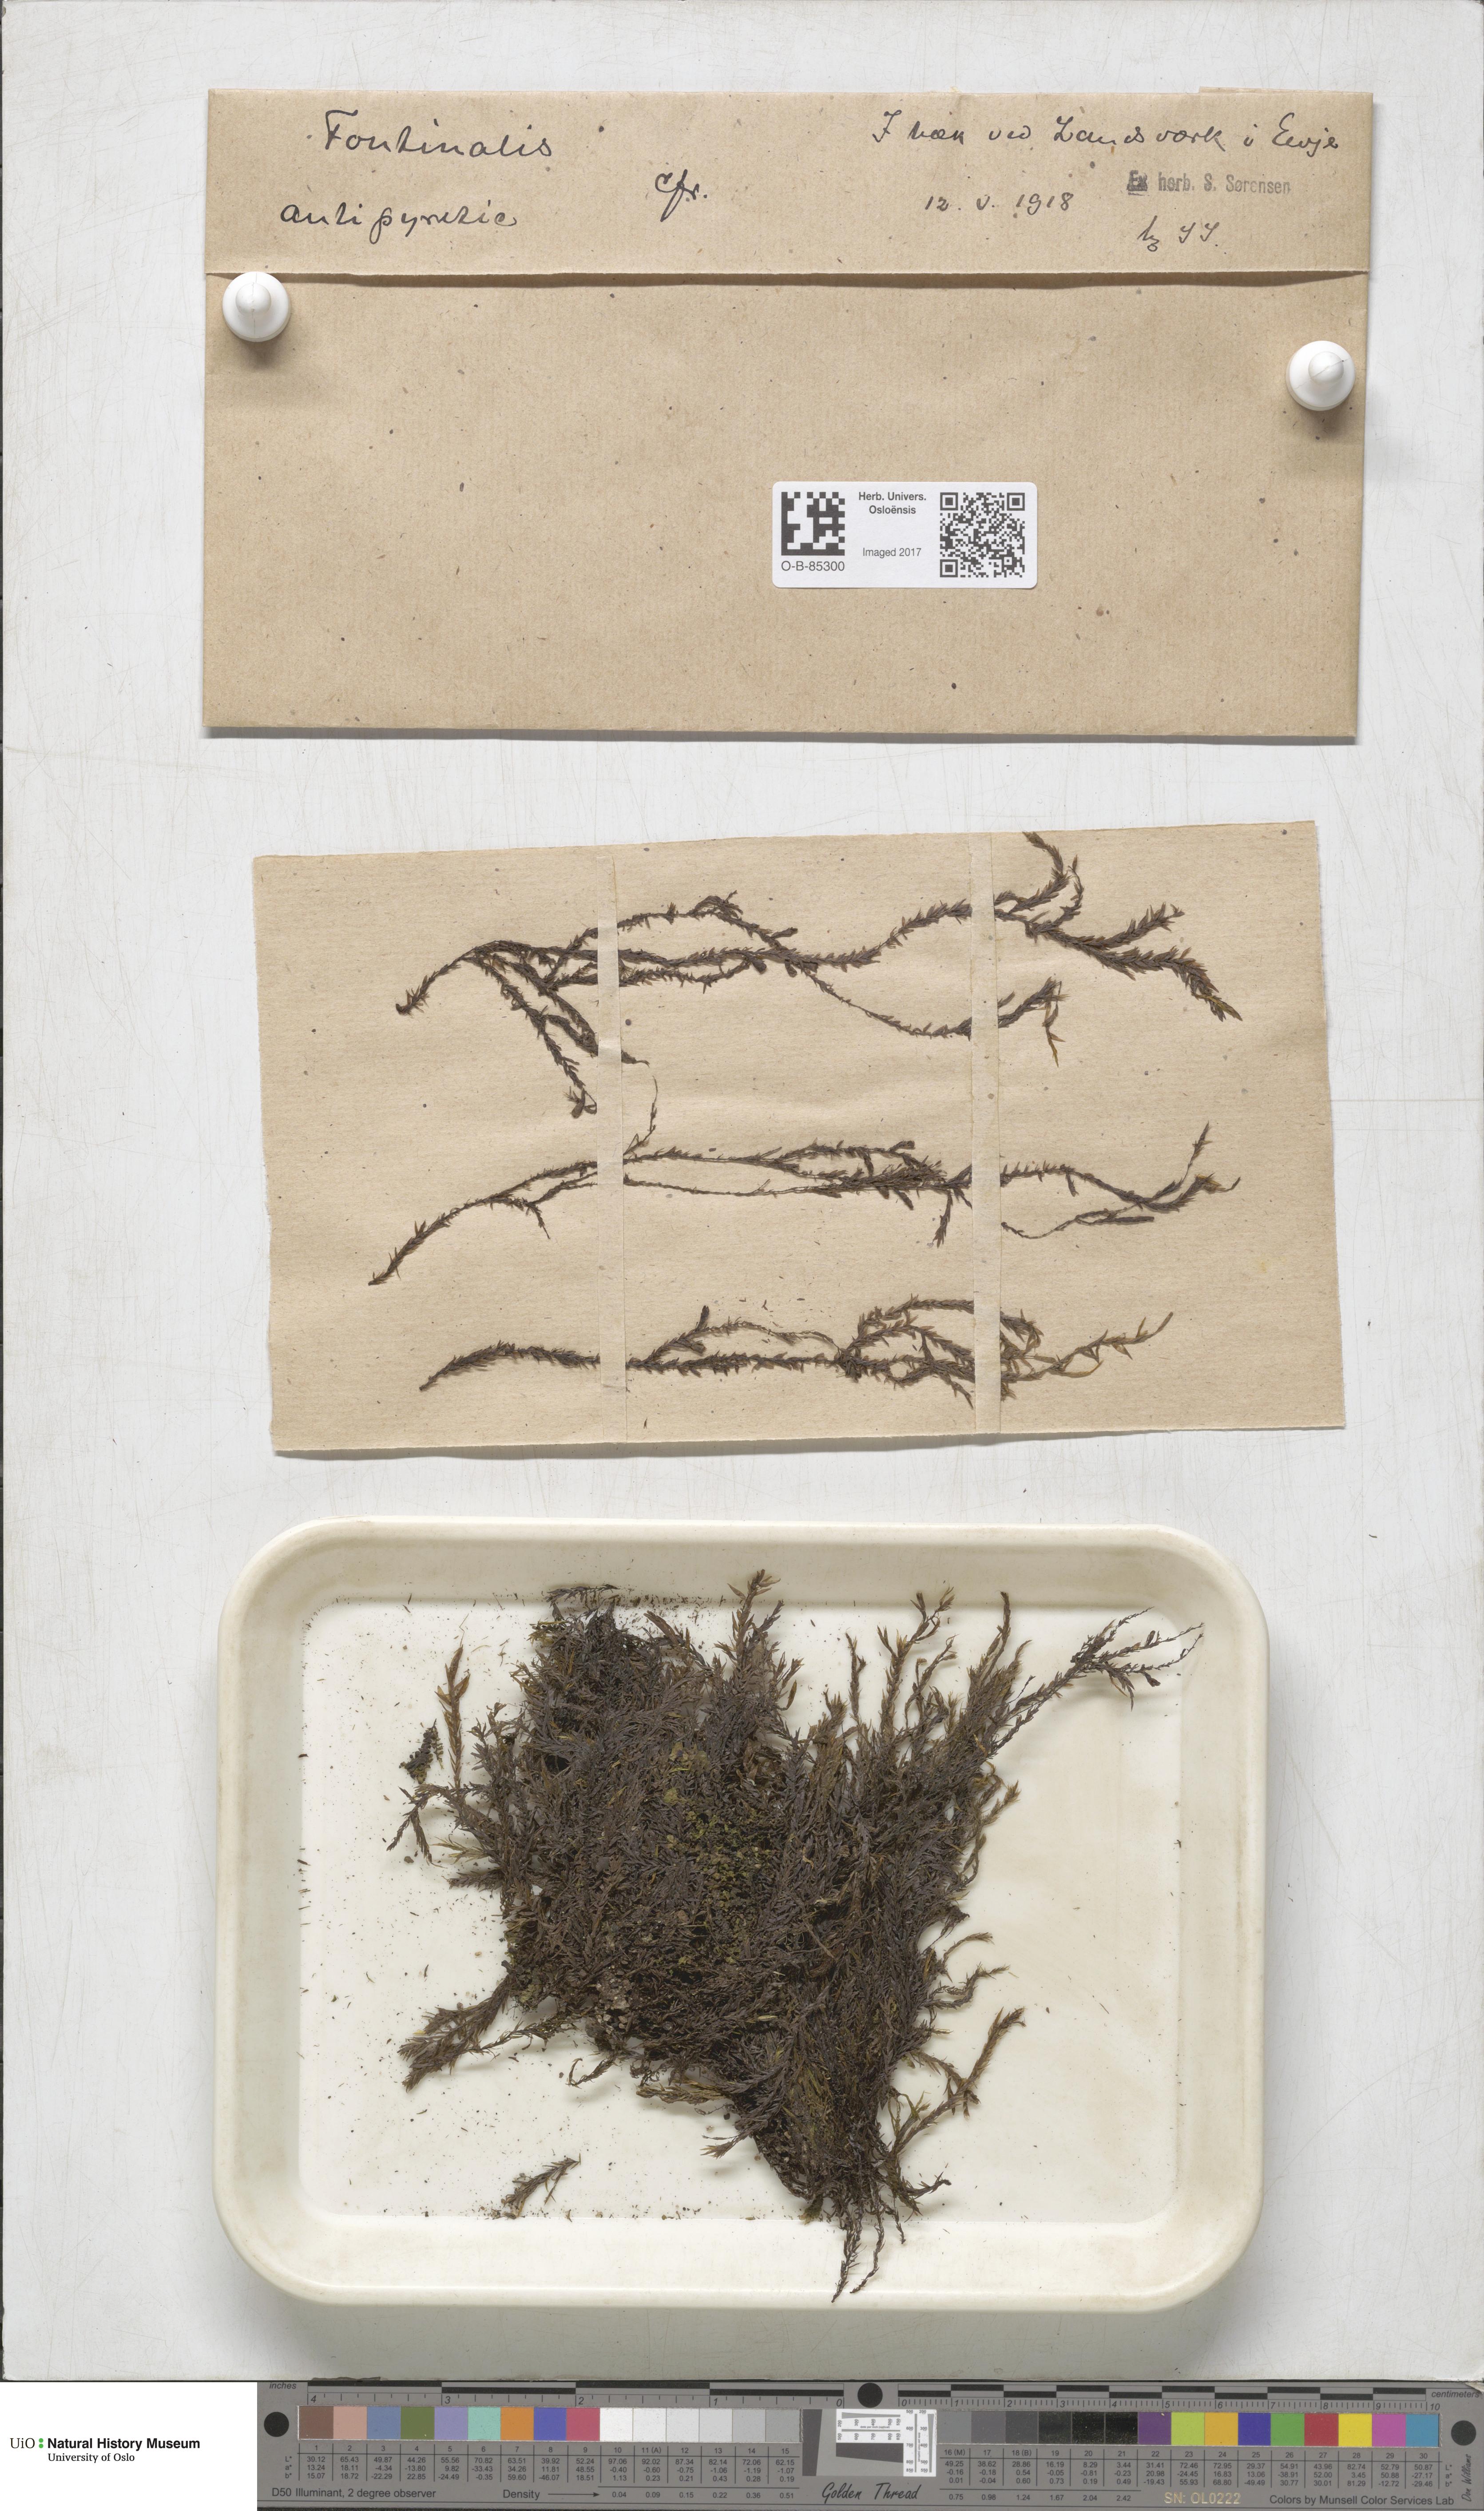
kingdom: Plantae
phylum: Bryophyta
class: Bryopsida
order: Hypnales
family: Fontinalaceae
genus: Fontinalis
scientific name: Fontinalis antipyretica
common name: Greater water-moss
